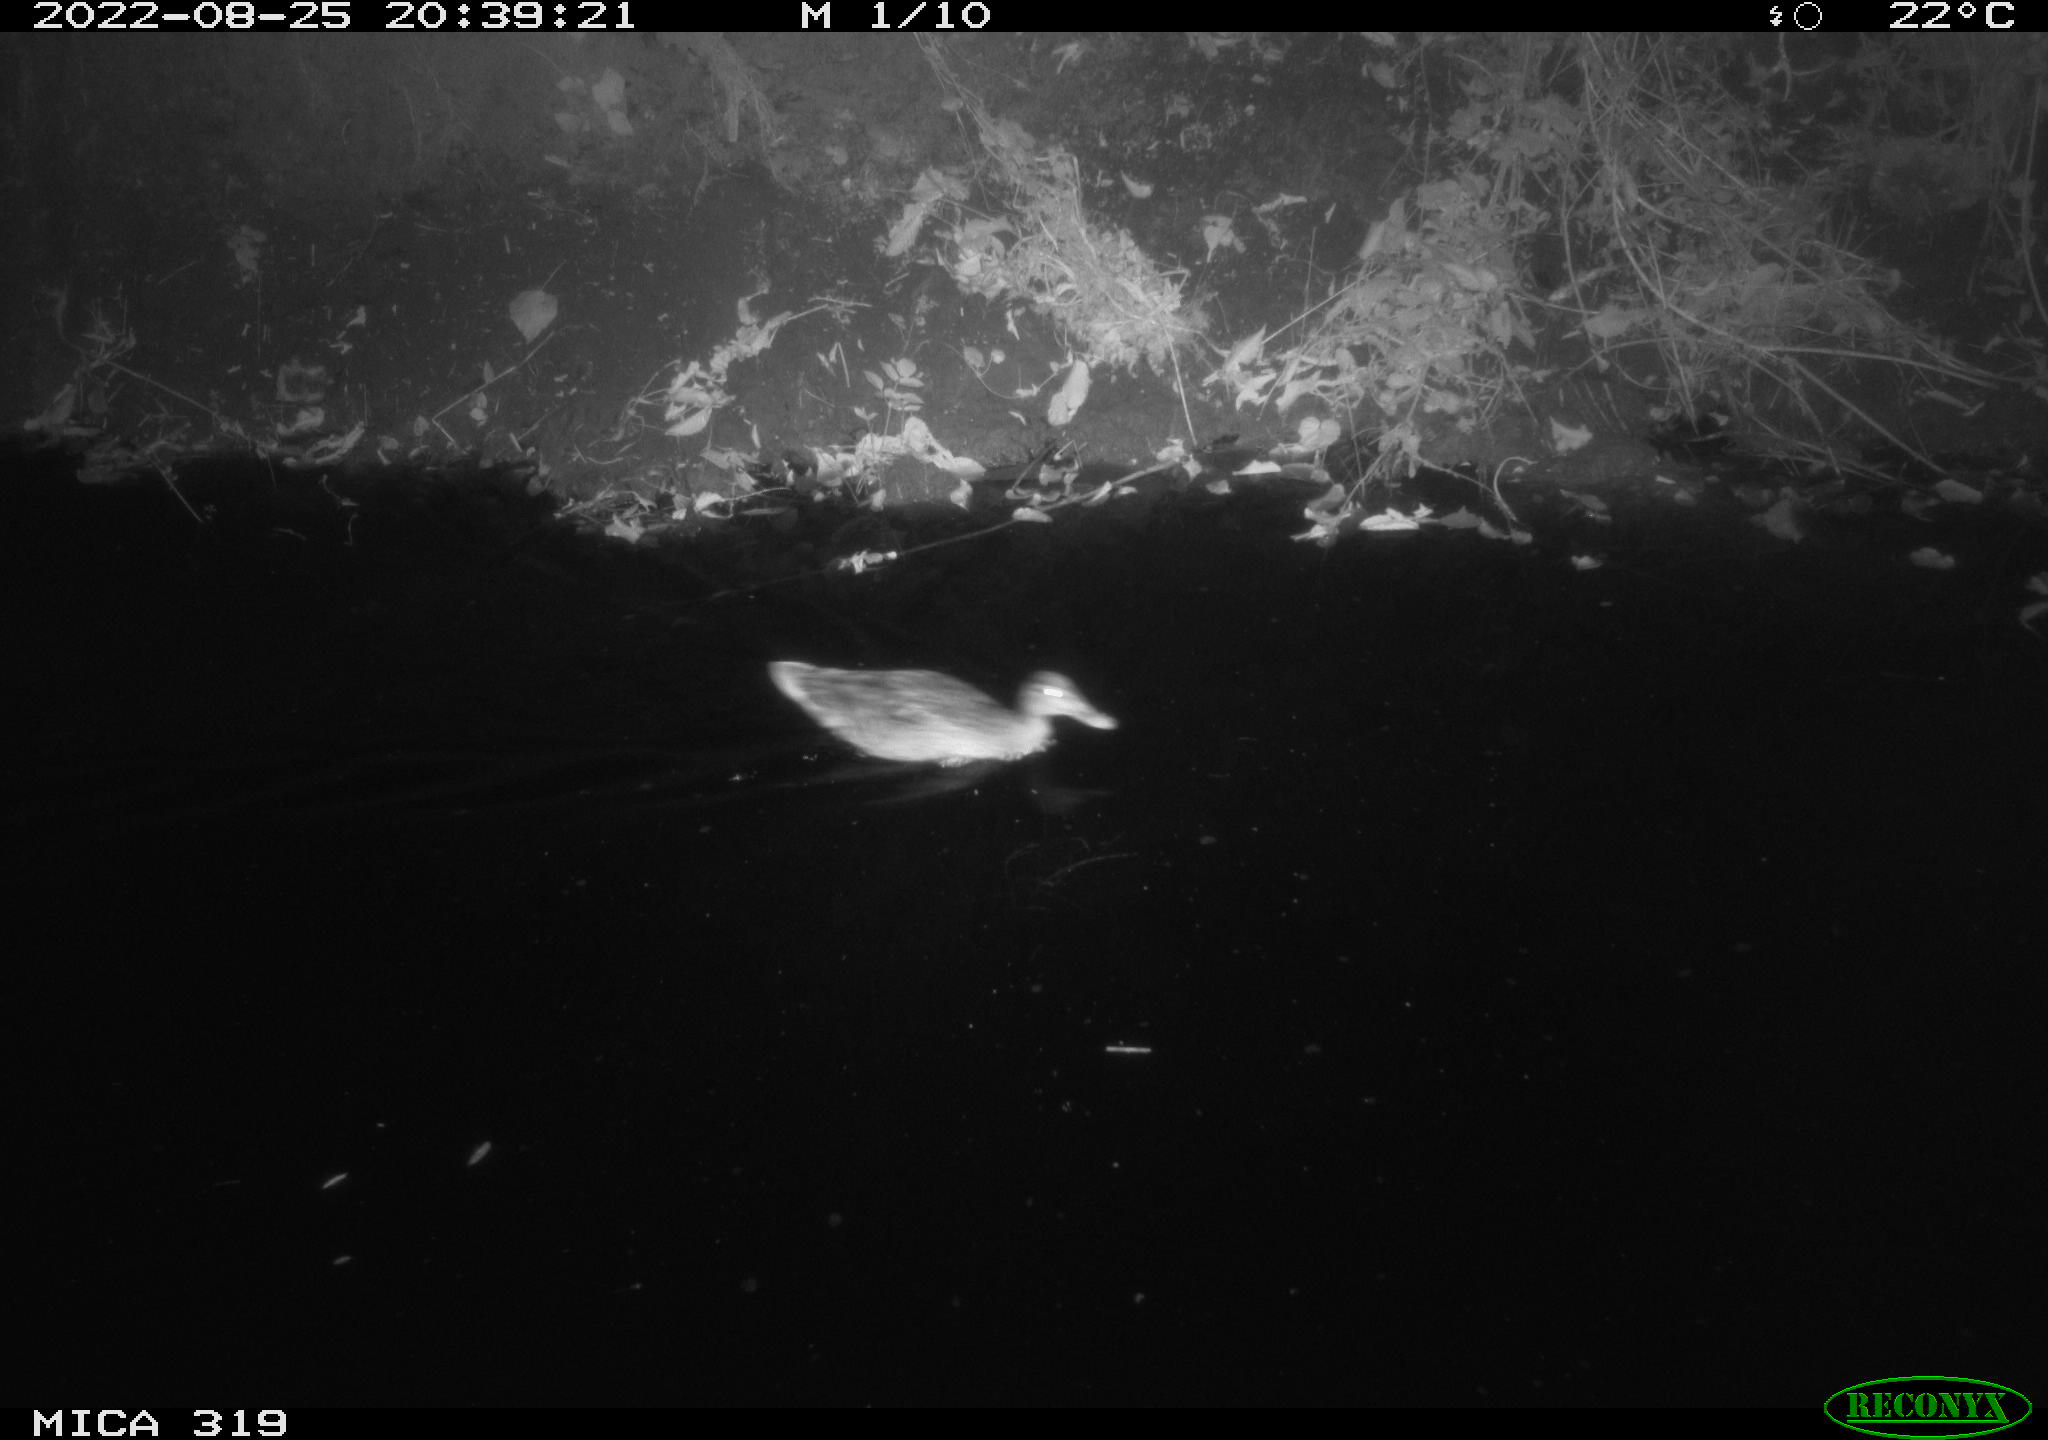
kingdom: Animalia
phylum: Chordata
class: Aves
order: Anseriformes
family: Anatidae
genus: Anas
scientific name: Anas
